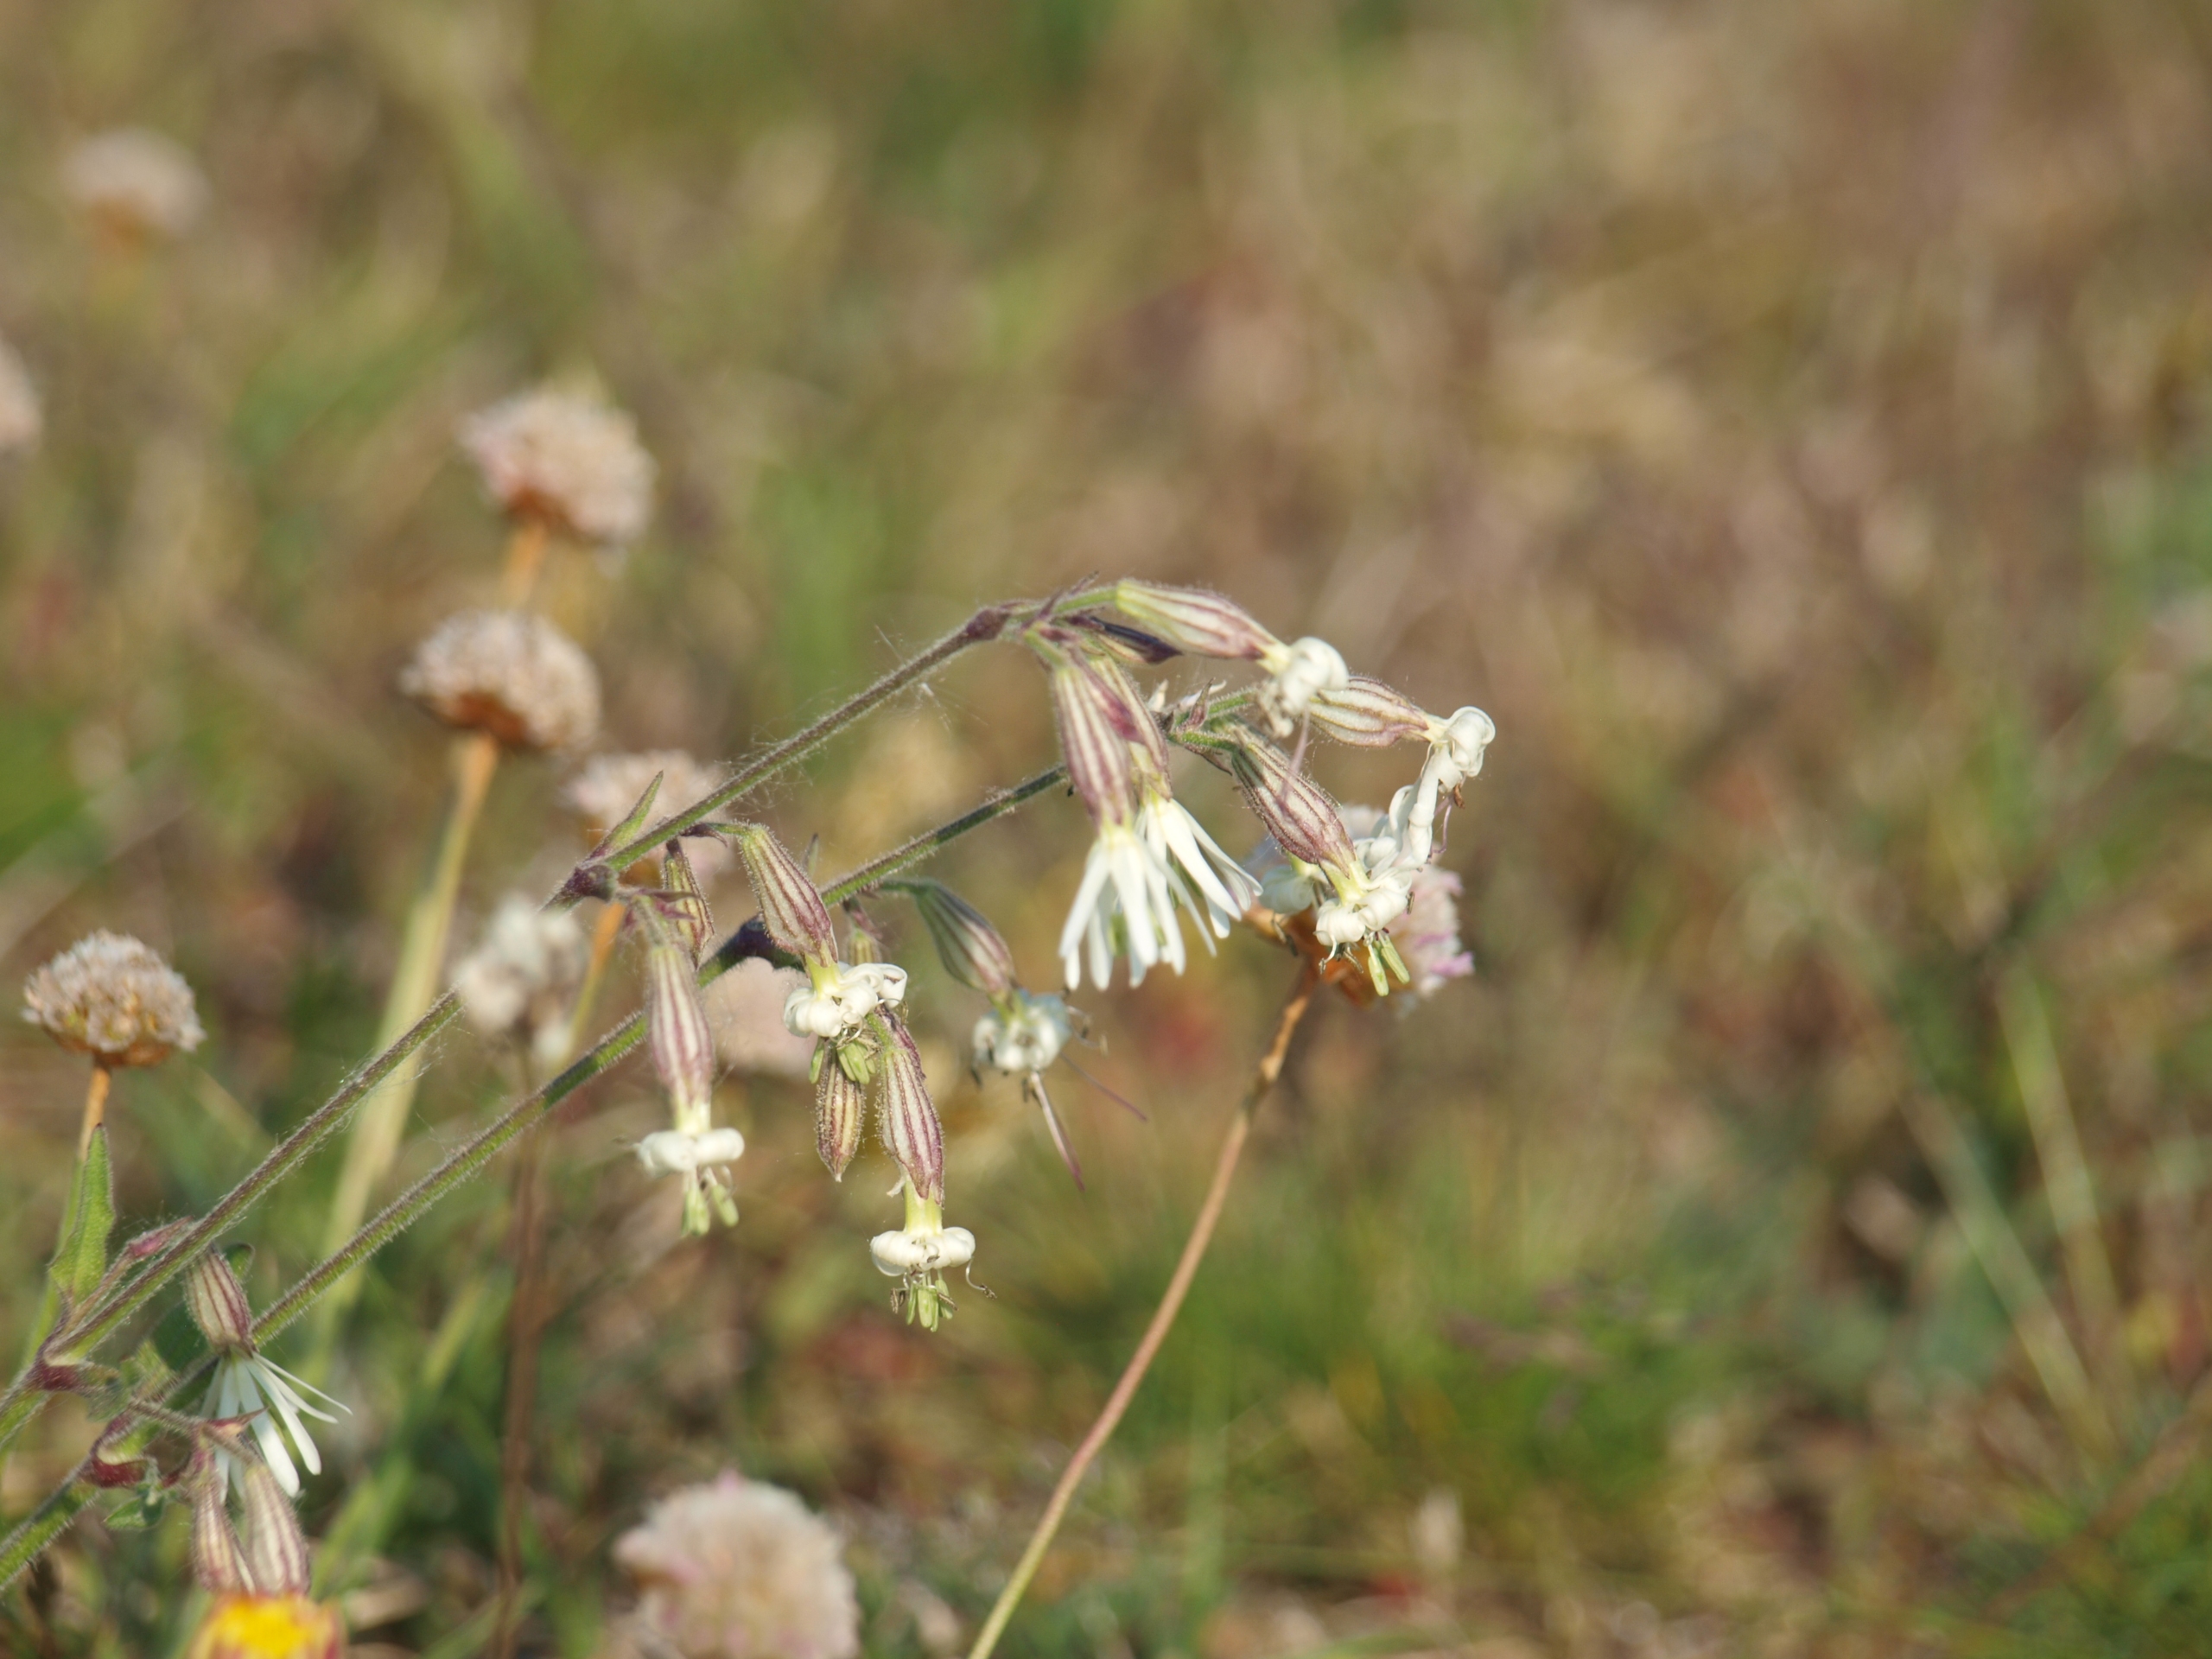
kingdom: Plantae
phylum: Tracheophyta
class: Magnoliopsida
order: Caryophyllales
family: Caryophyllaceae
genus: Silene
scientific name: Silene nutans
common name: Nikkende limurt
